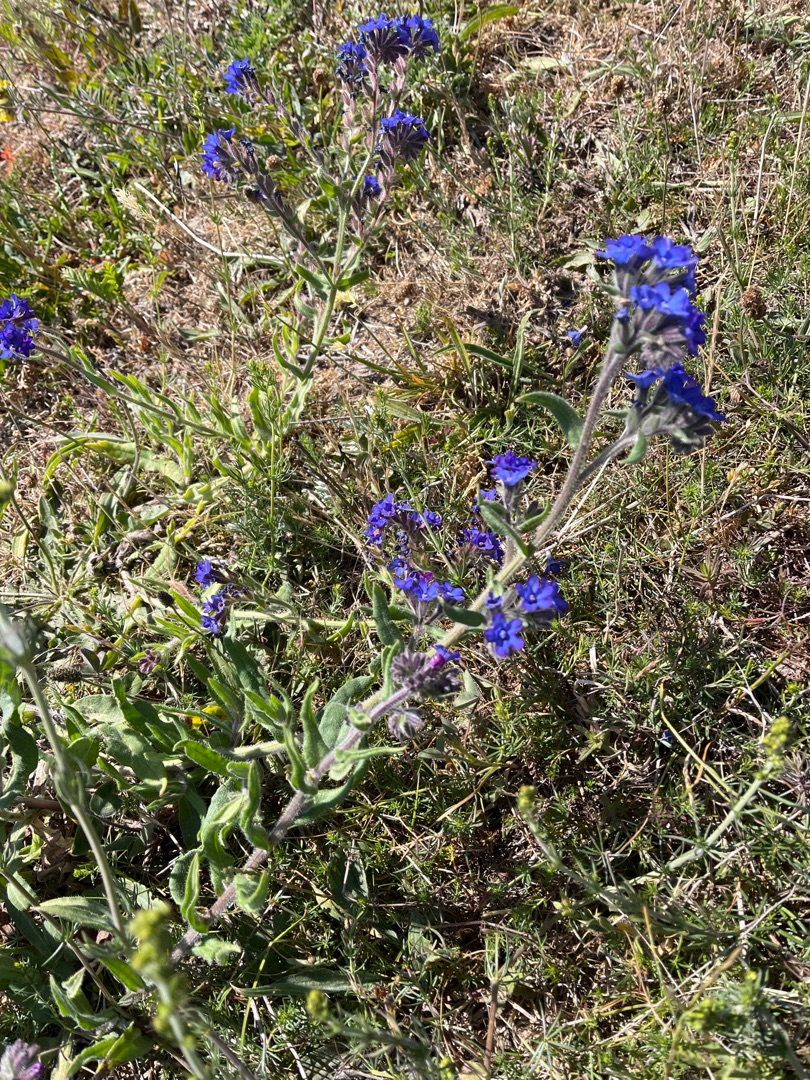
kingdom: Plantae
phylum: Tracheophyta
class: Magnoliopsida
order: Boraginales
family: Boraginaceae
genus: Anchusa
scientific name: Anchusa officinalis
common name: Læge-oksetunge
